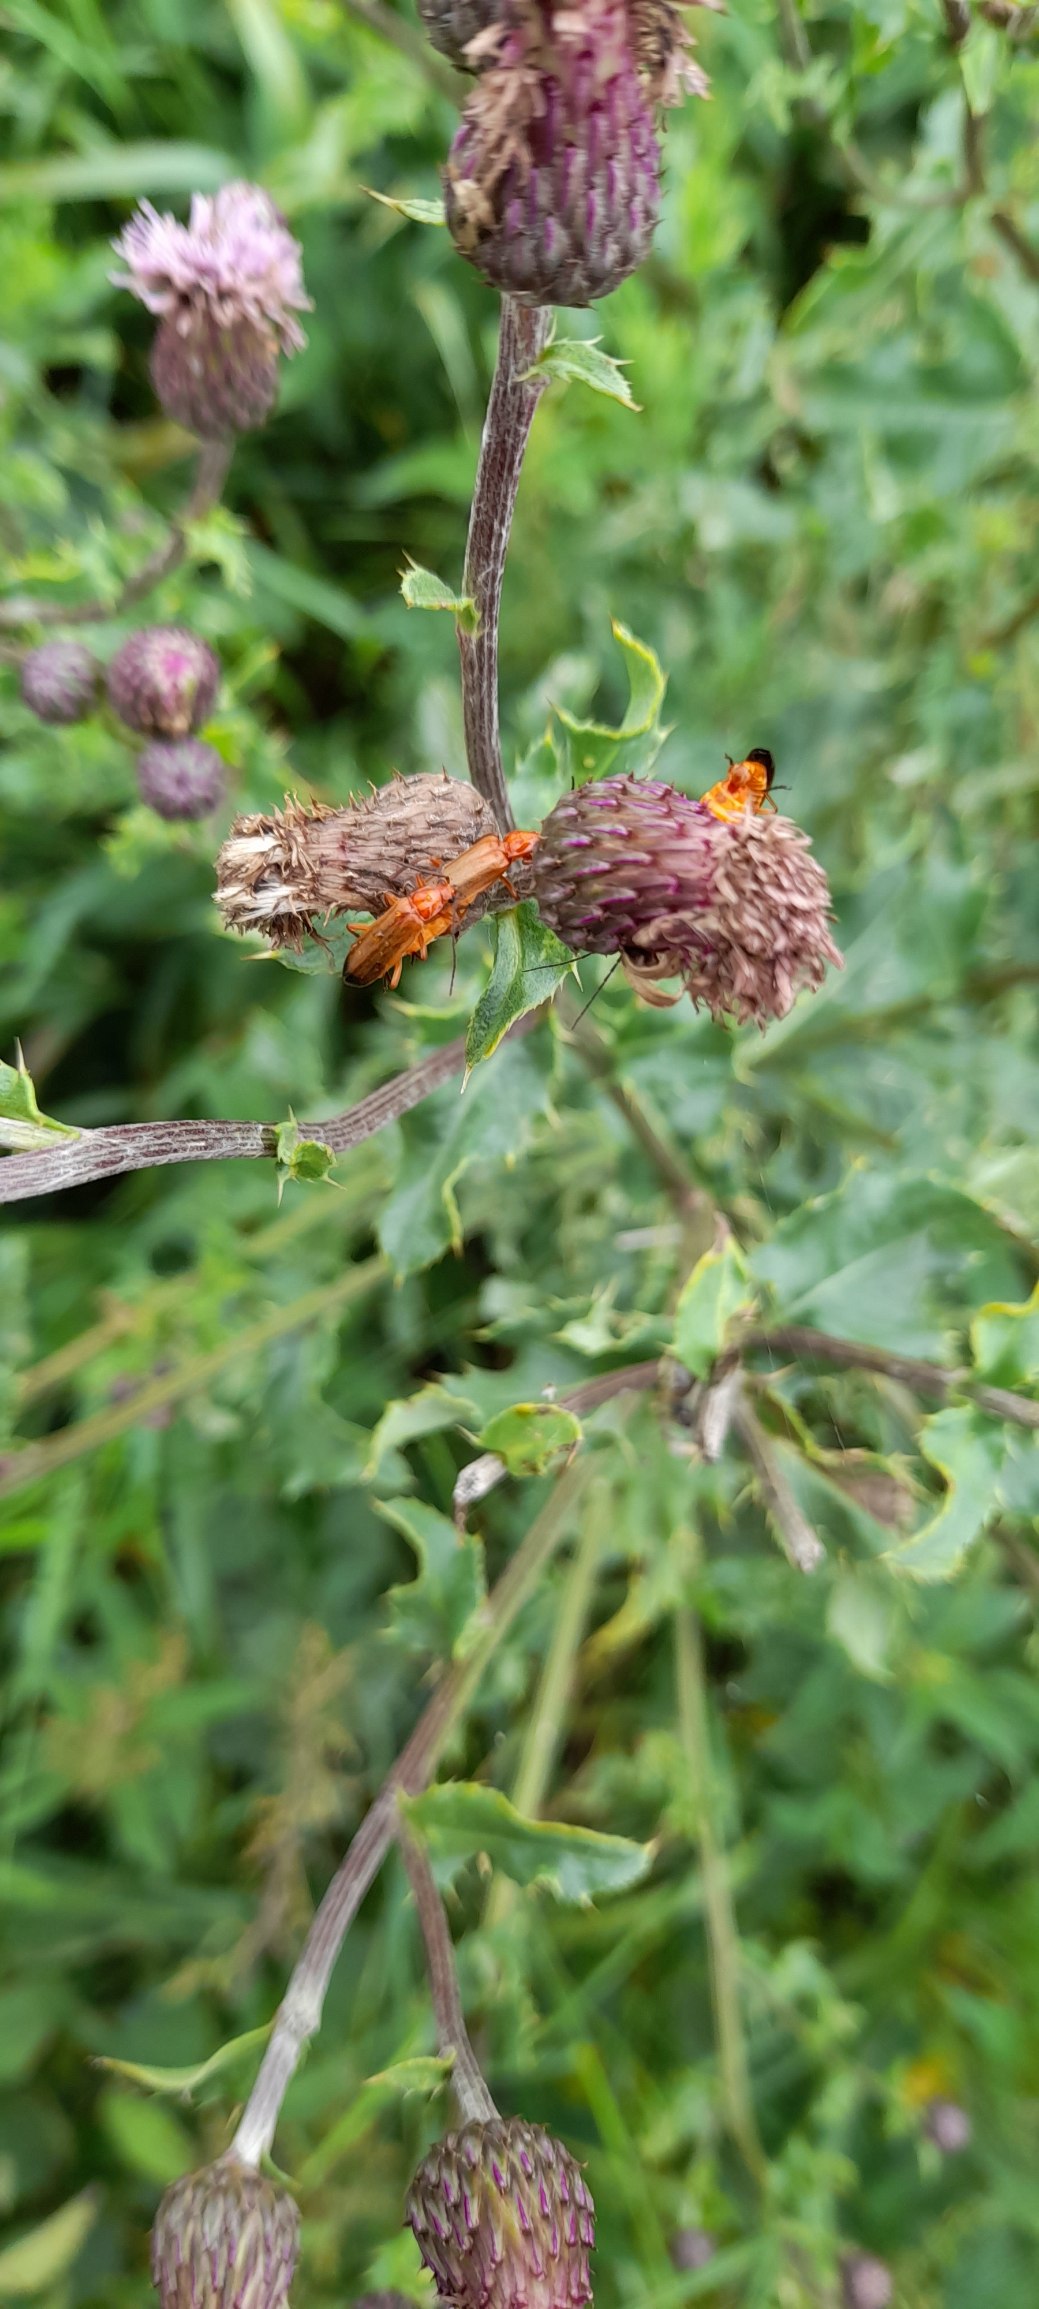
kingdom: Animalia
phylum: Arthropoda
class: Insecta
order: Coleoptera
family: Cantharidae
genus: Rhagonycha
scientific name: Rhagonycha fulva
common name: Præstebille
